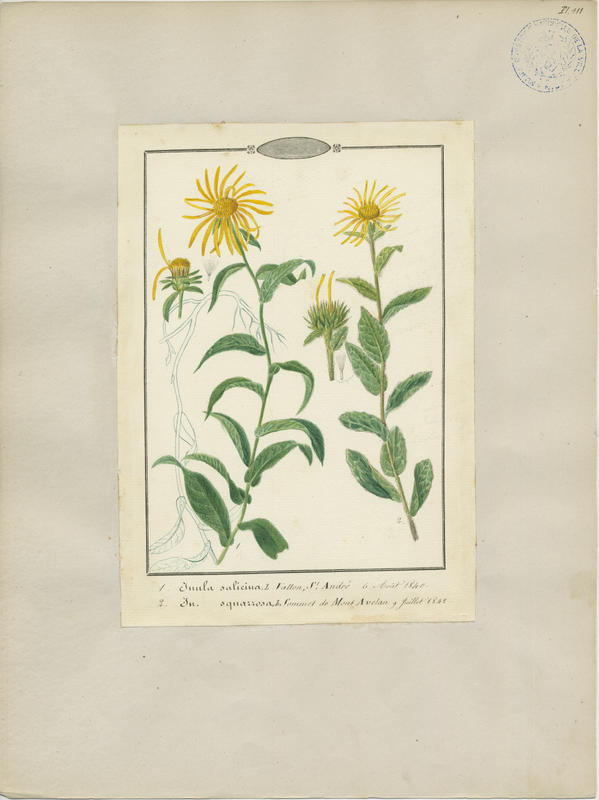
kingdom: Plantae
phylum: Tracheophyta
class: Magnoliopsida
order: Asterales
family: Asteraceae
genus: Pentanema
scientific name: Pentanema spiraeifolium
